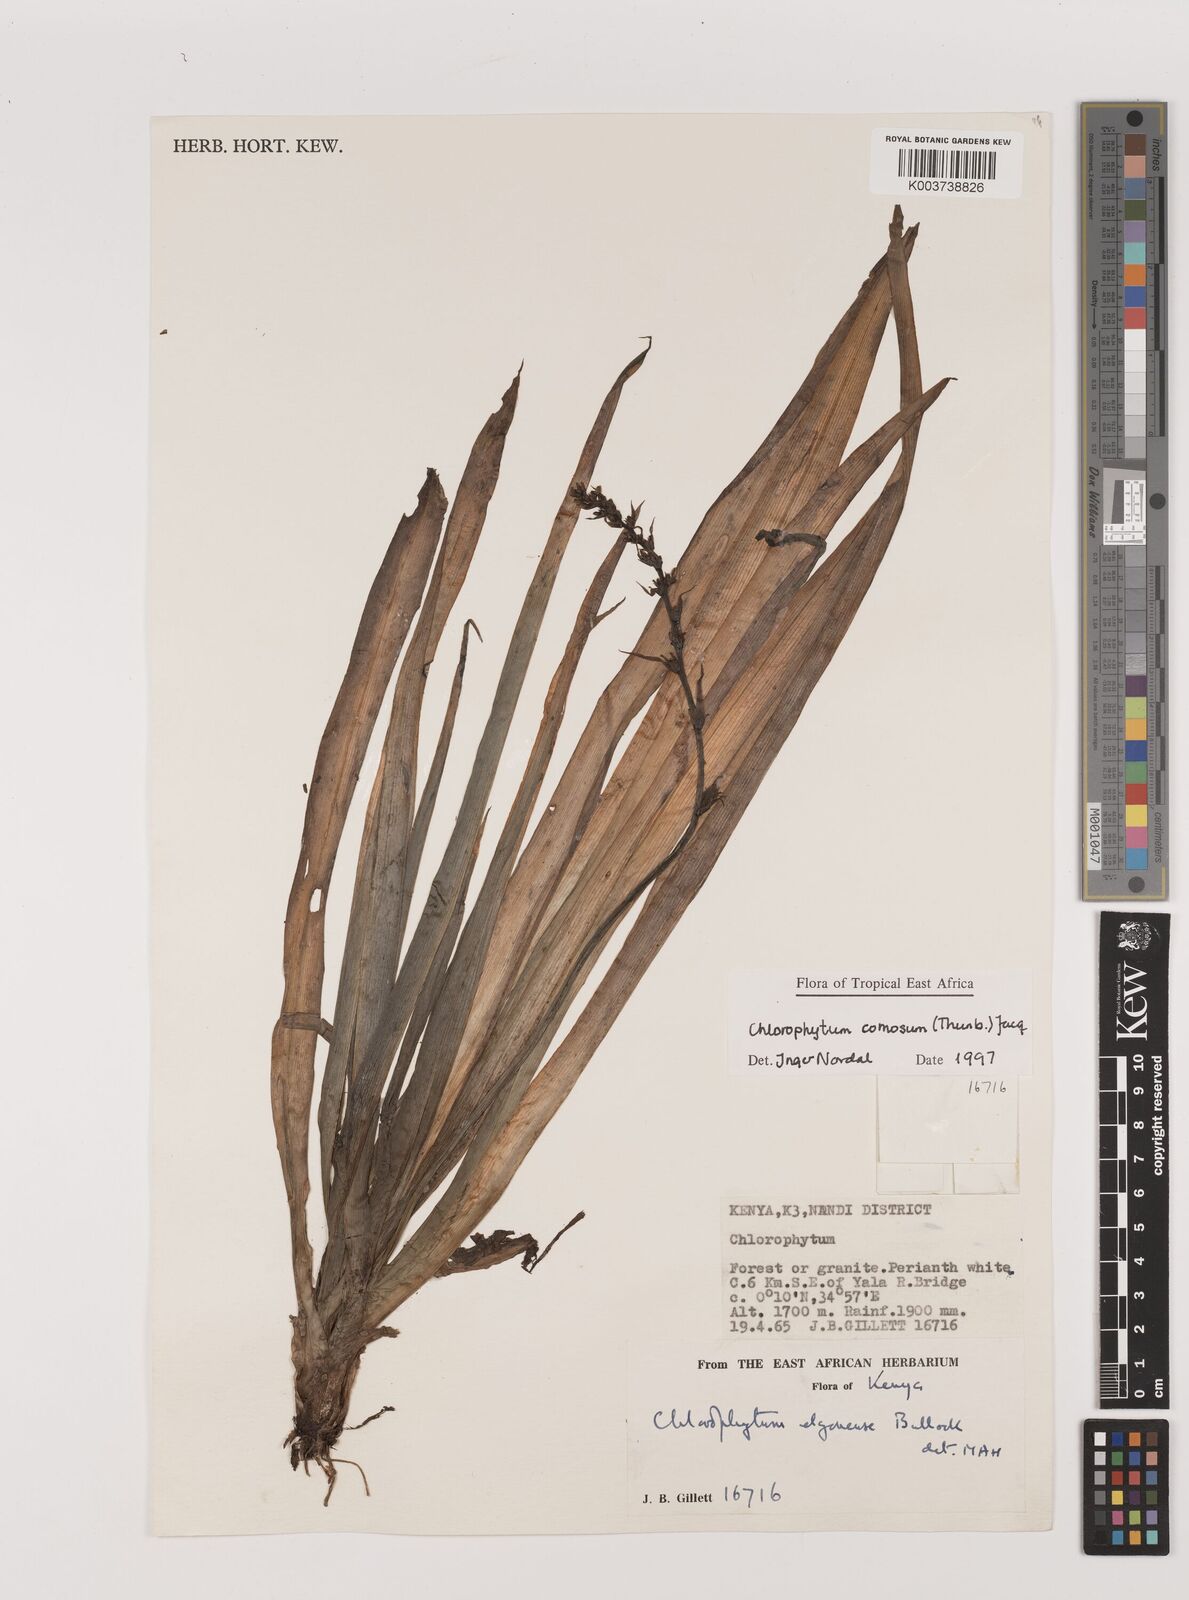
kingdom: Plantae
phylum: Tracheophyta
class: Liliopsida
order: Asparagales
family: Asparagaceae
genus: Chlorophytum
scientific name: Chlorophytum comosum
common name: Spider plant
